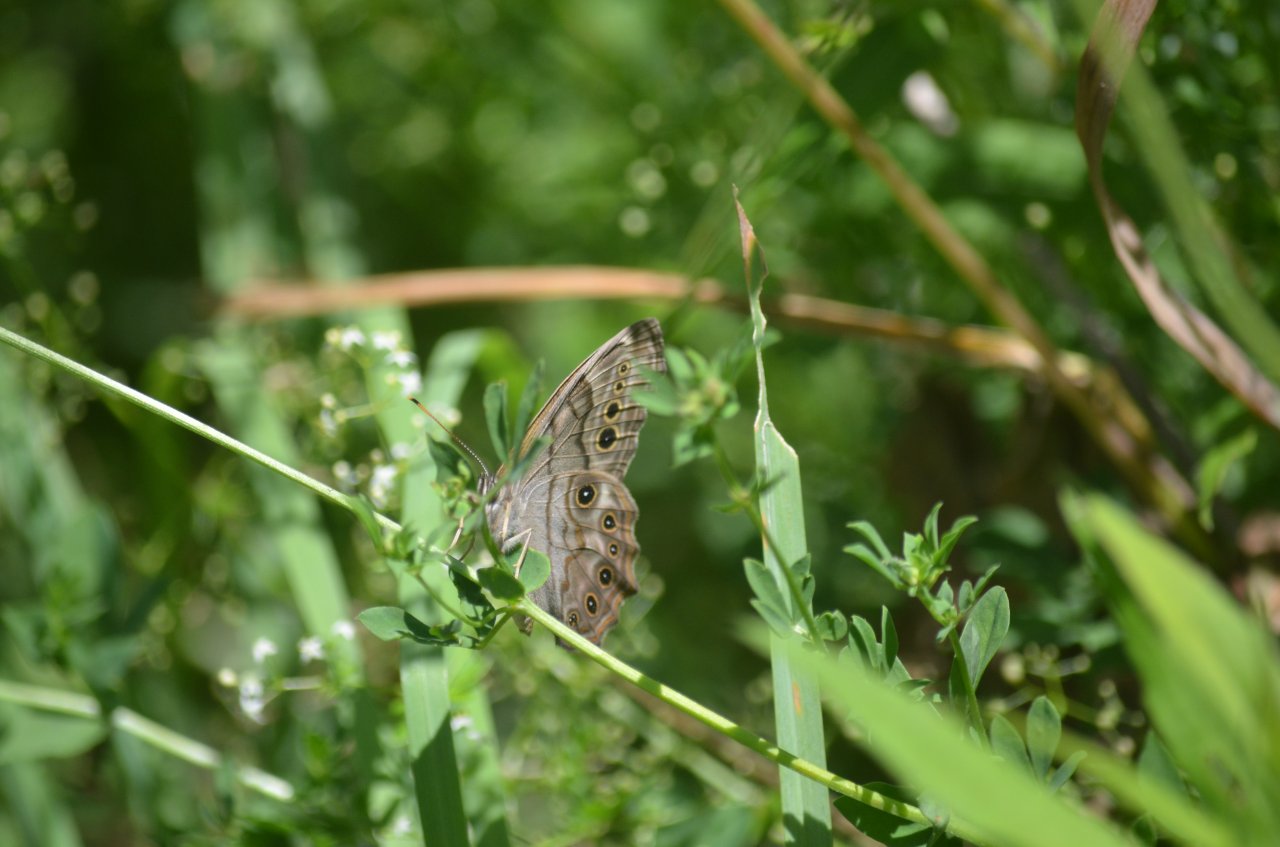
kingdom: Animalia
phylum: Arthropoda
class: Insecta
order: Lepidoptera
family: Nymphalidae
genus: Lethe
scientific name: Lethe anthedon
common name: Northern Pearly-Eye
